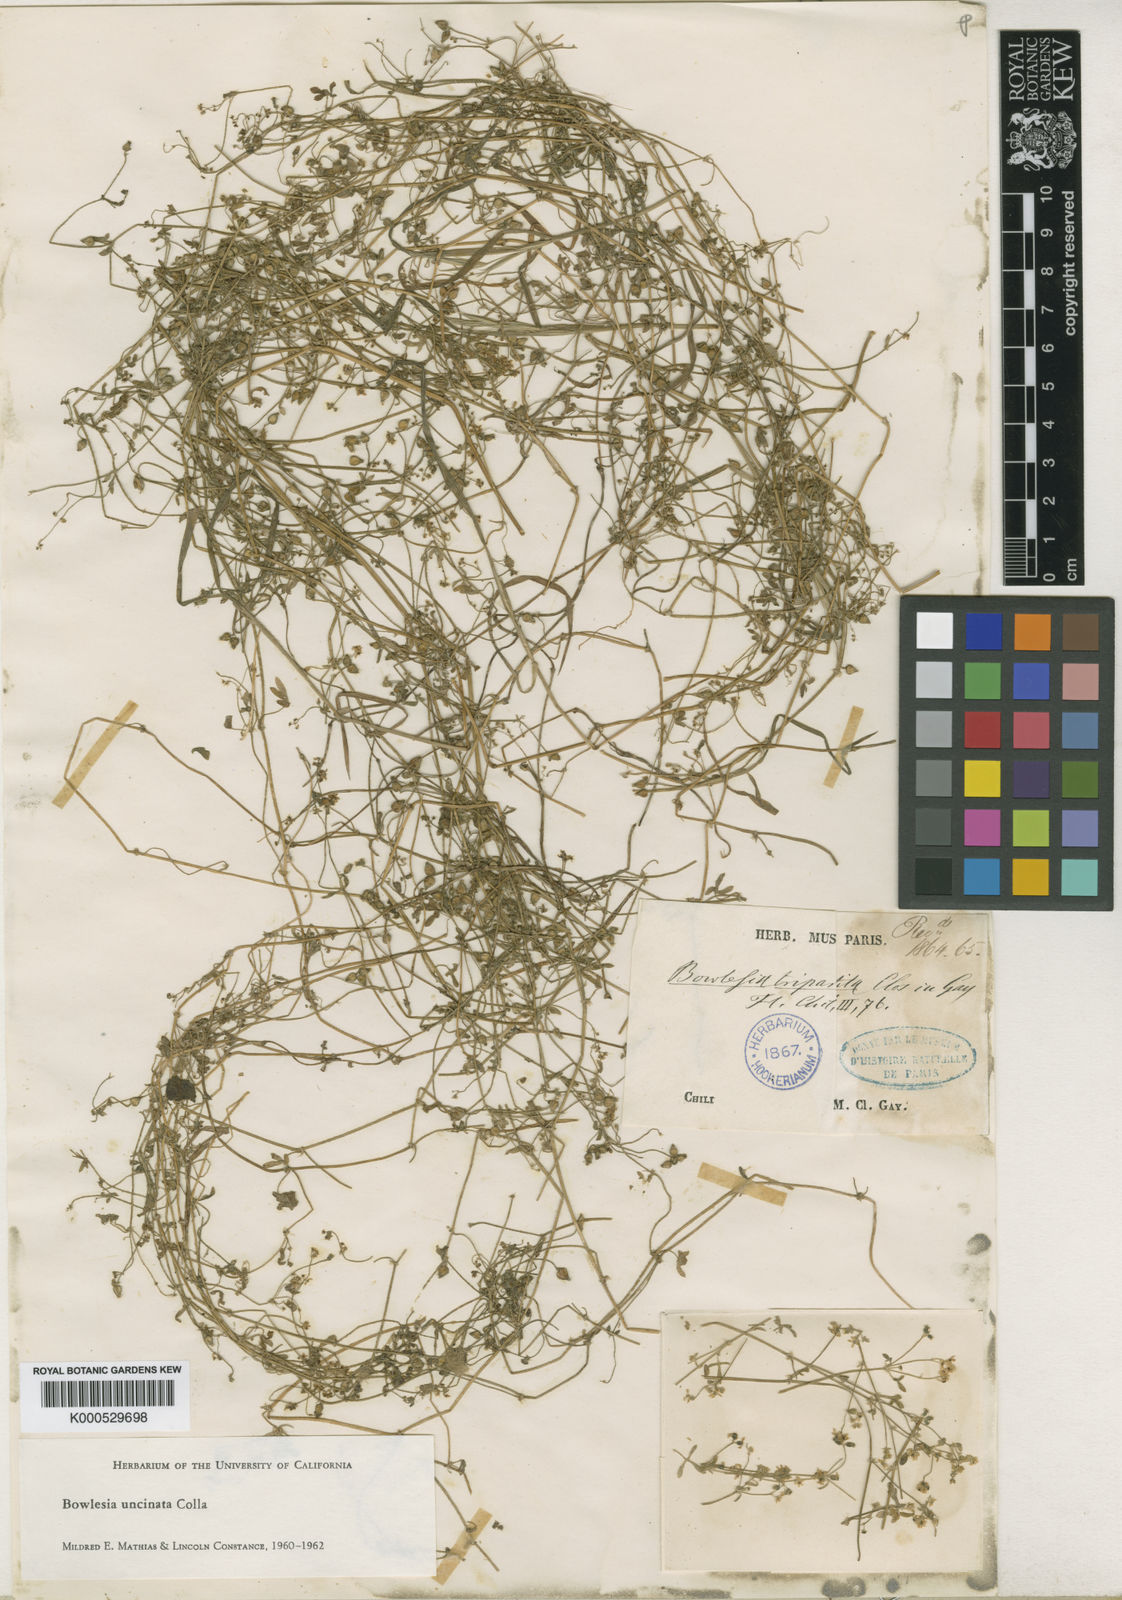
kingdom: Plantae
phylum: Tracheophyta
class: Magnoliopsida
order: Apiales
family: Apiaceae
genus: Bowlesia
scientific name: Bowlesia uncinata
